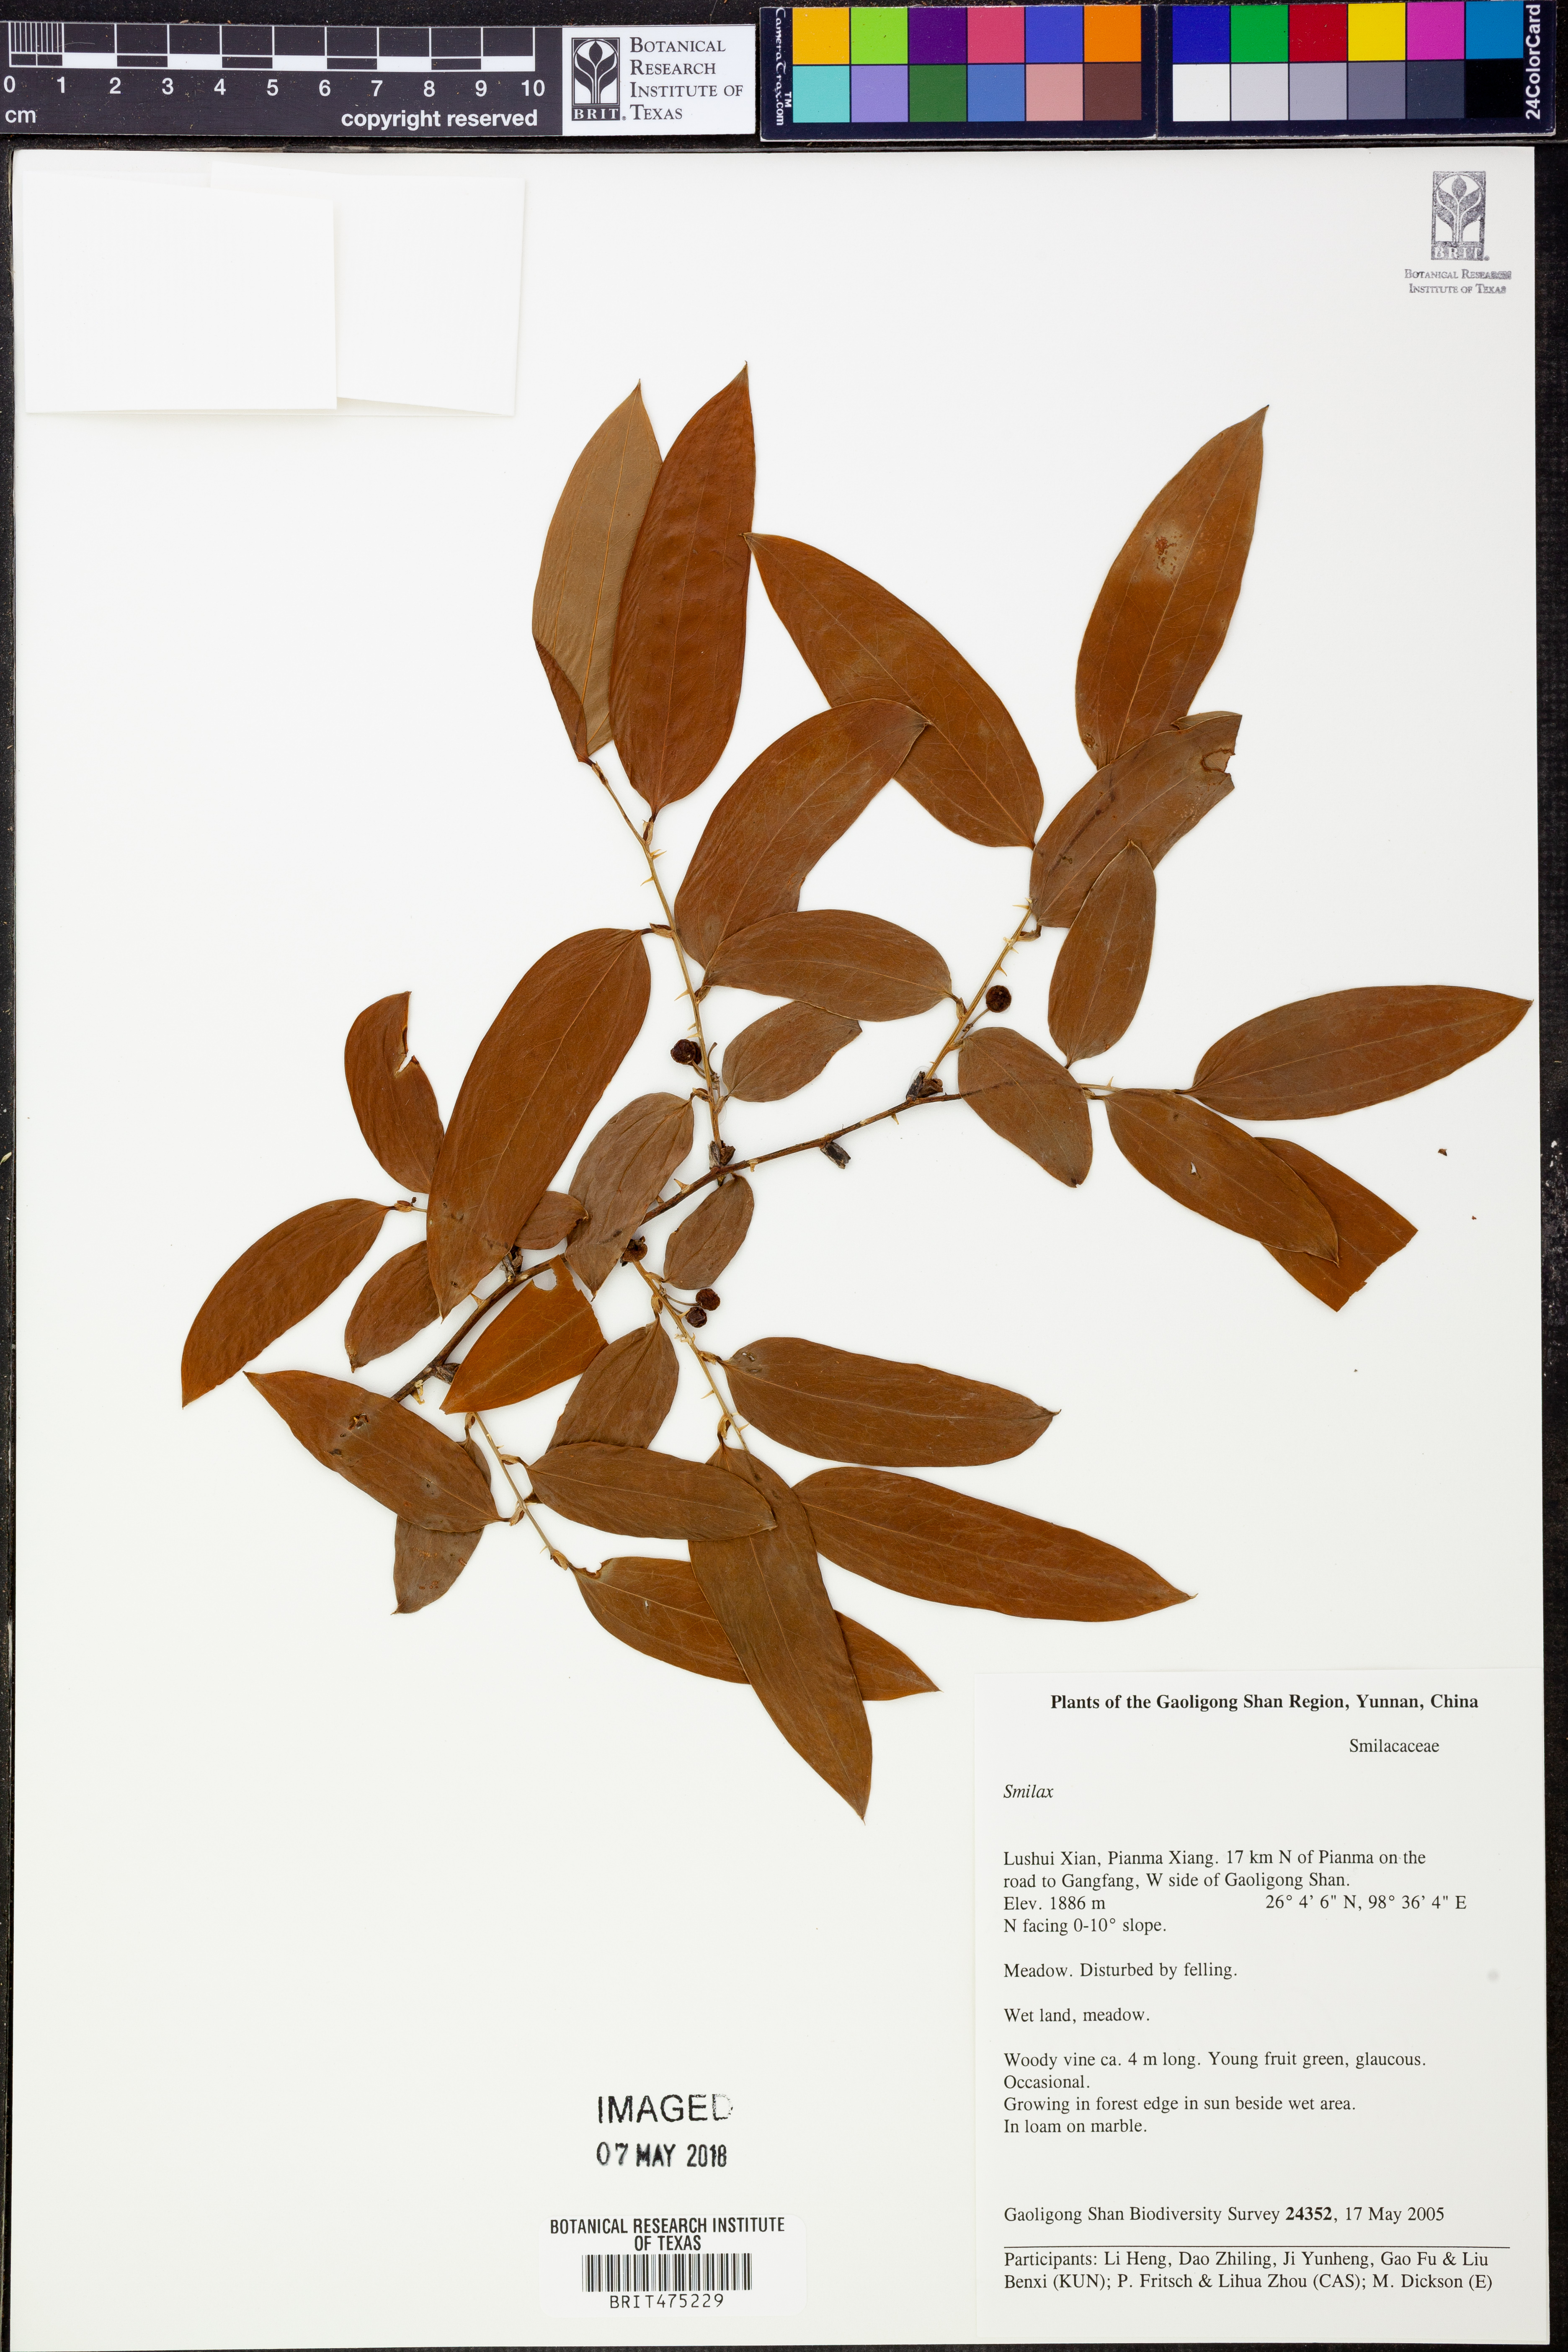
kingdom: Plantae
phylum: Tracheophyta
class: Liliopsida
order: Liliales
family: Smilacaceae
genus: Smilax
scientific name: Smilax
